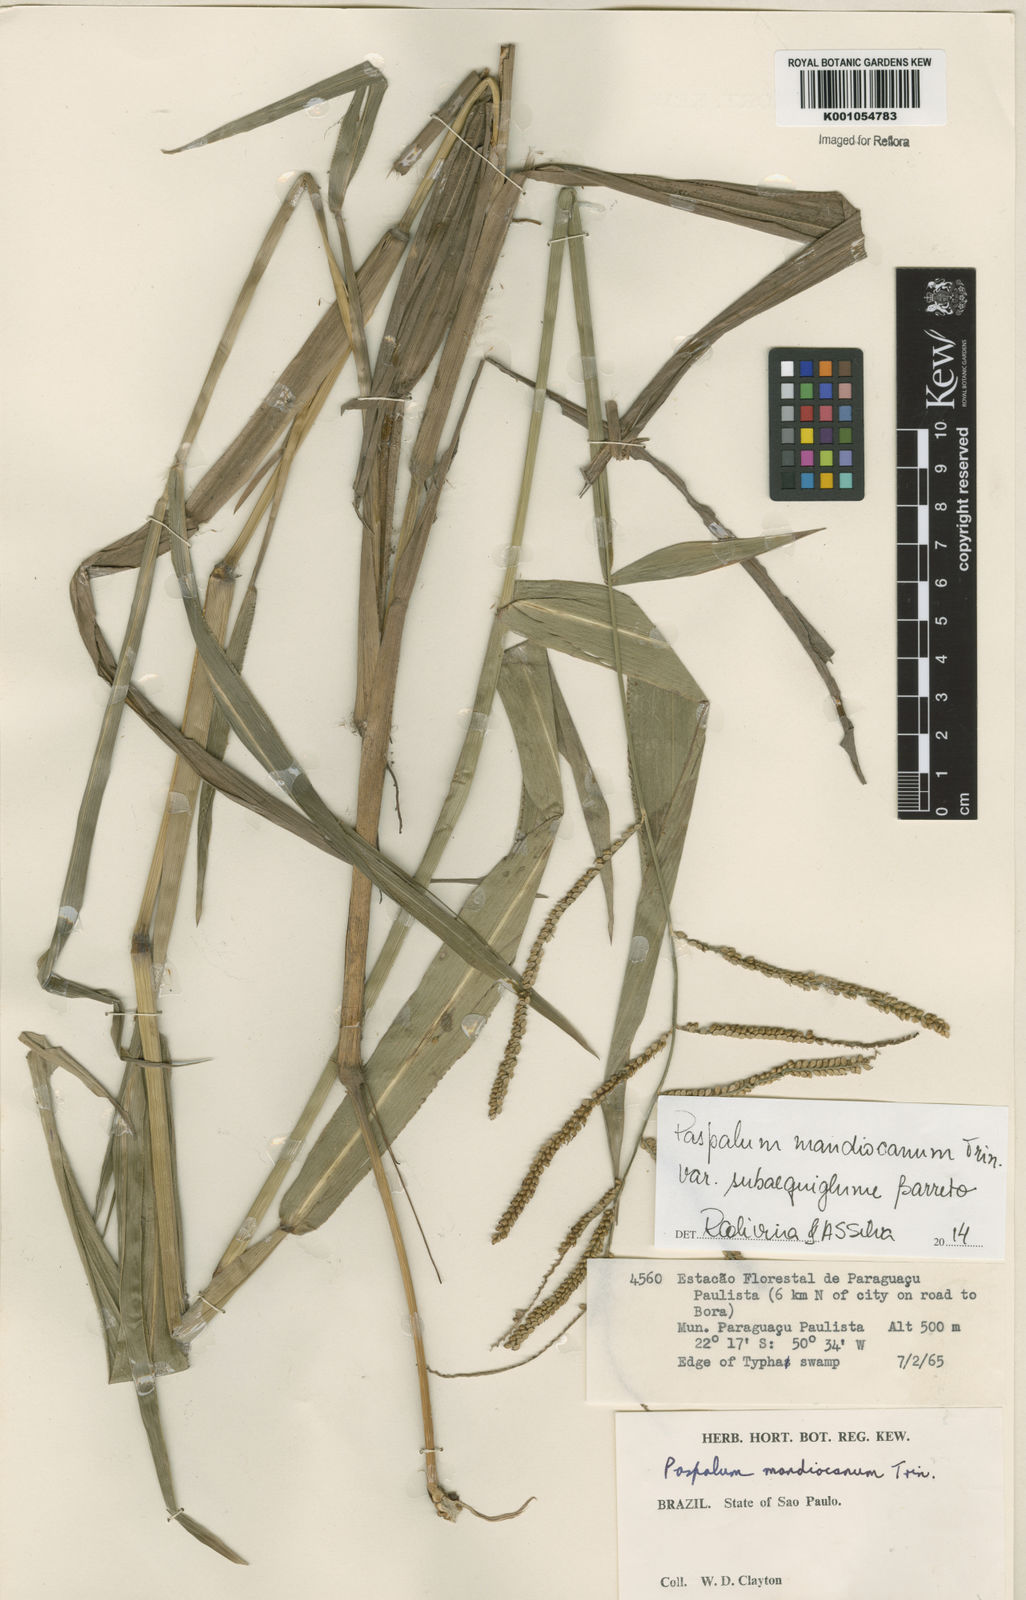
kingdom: Plantae
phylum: Tracheophyta
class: Liliopsida
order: Poales
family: Poaceae
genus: Paspalum
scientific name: Paspalum mandiocanum
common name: Paspalum
